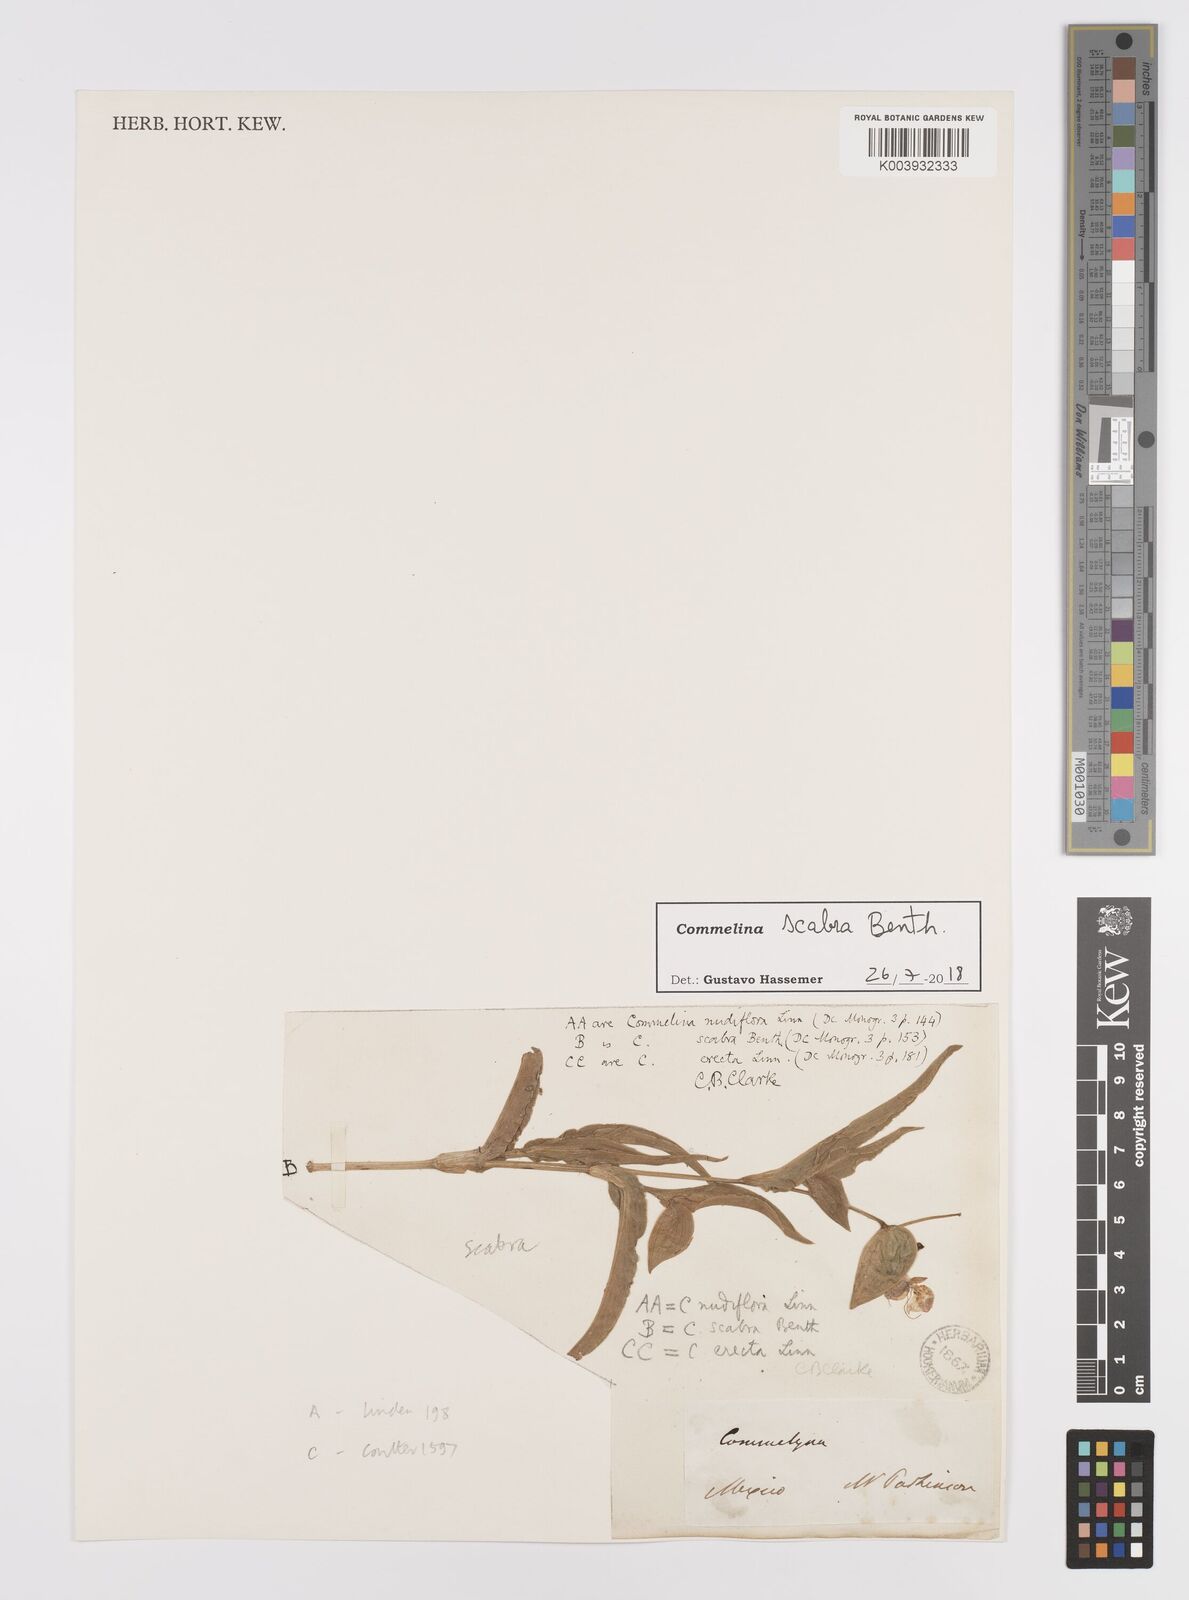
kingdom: Plantae
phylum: Tracheophyta
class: Liliopsida
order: Commelinales
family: Commelinaceae
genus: Commelina
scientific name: Commelina scabra
